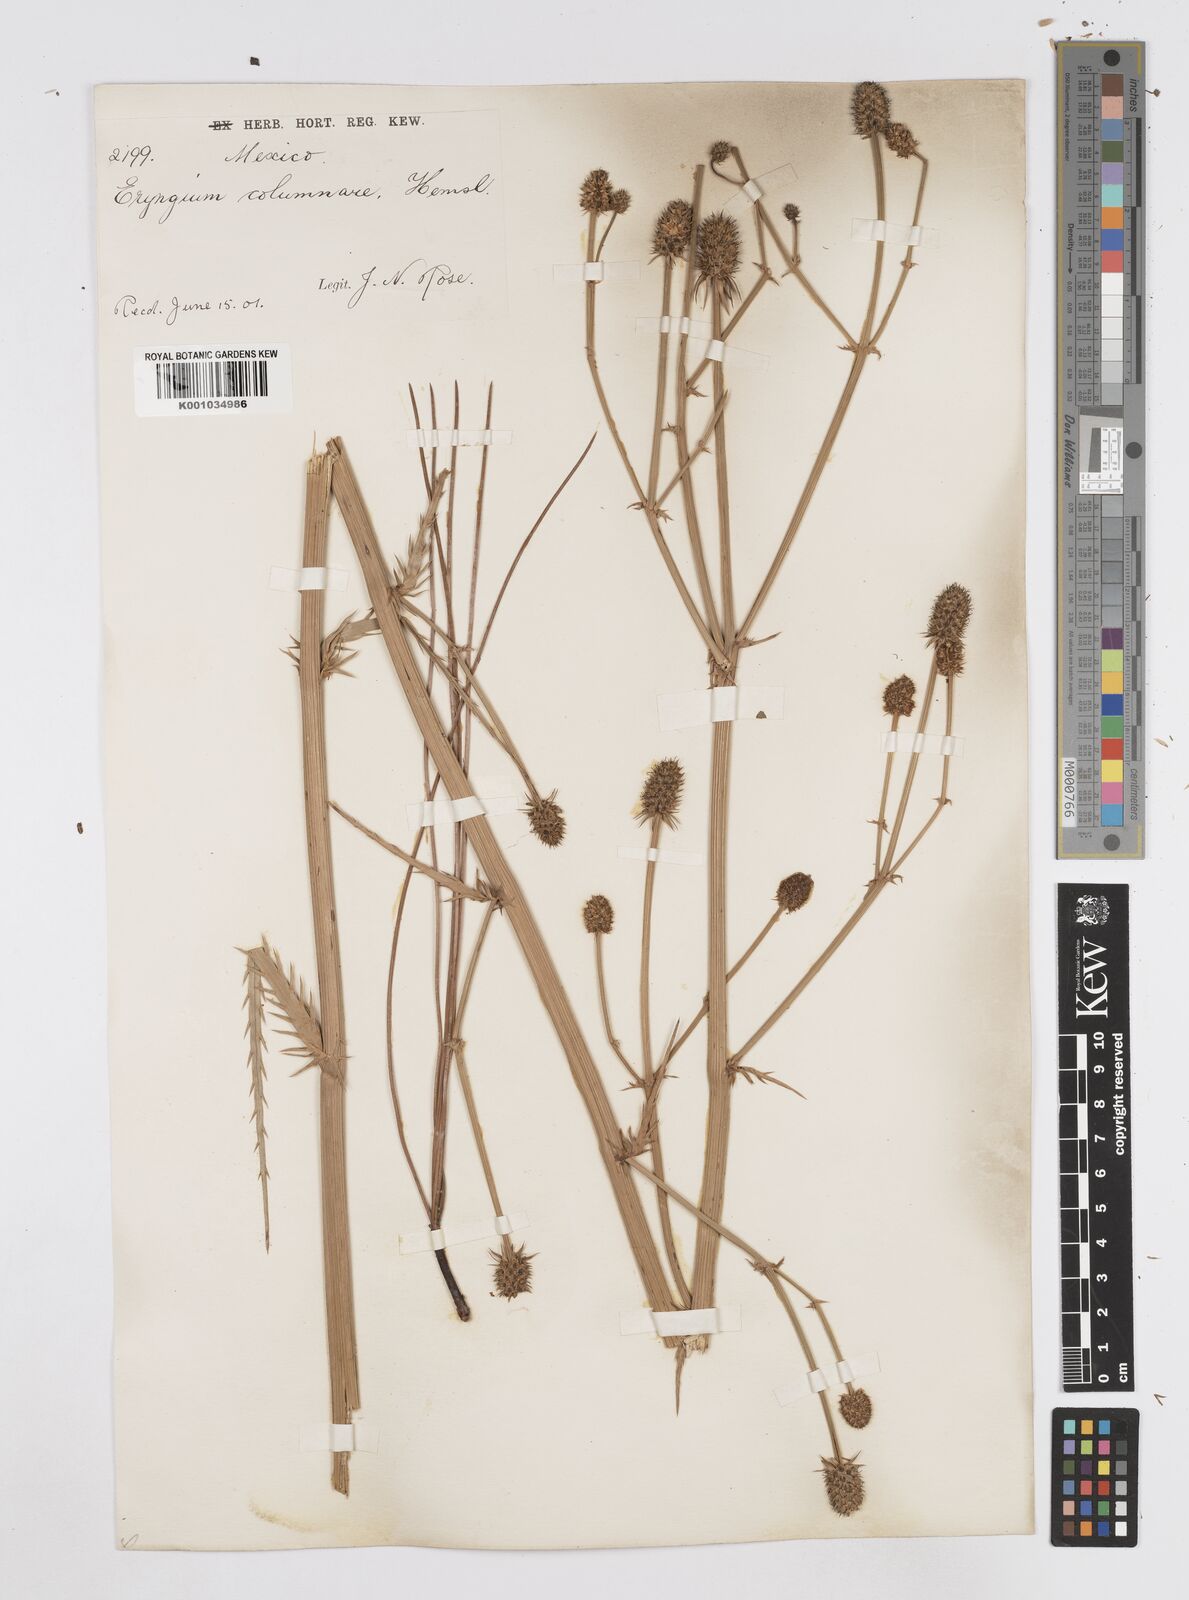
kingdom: Plantae
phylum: Tracheophyta
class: Magnoliopsida
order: Apiales
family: Apiaceae
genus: Eryngium
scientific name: Eryngium columnare
